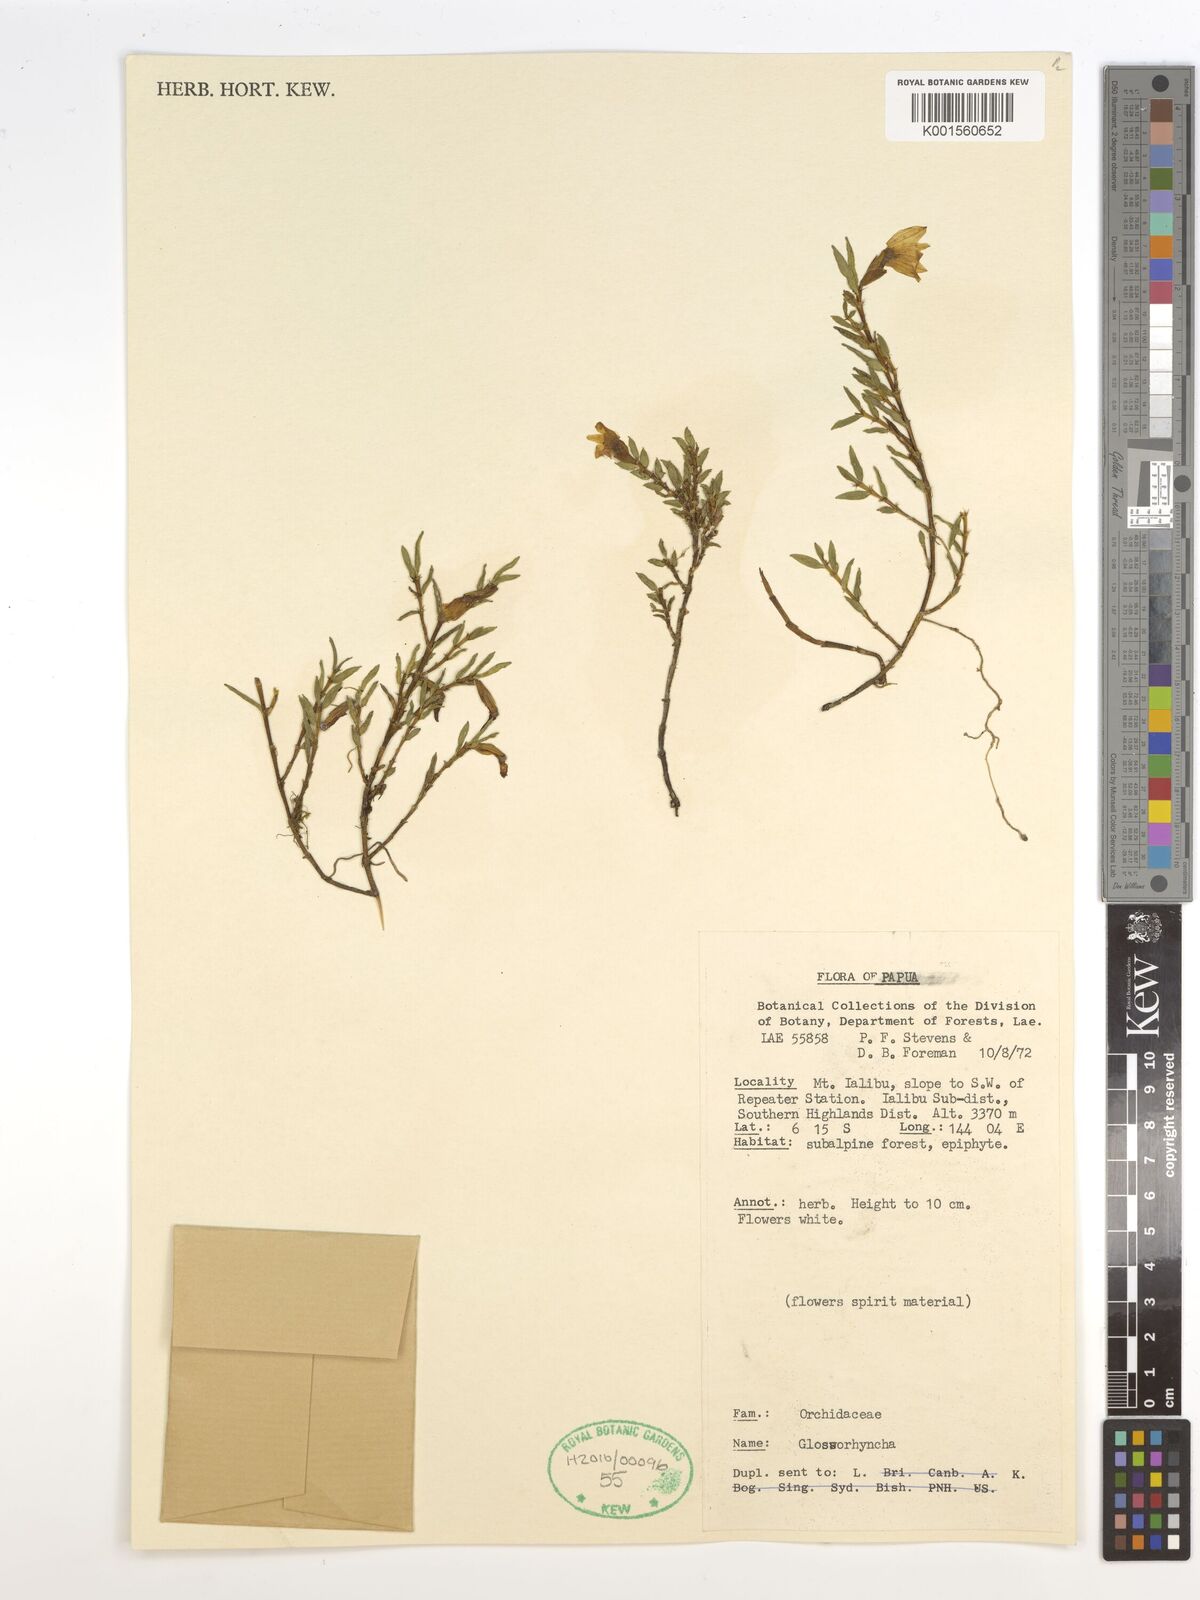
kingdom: Plantae
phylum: Tracheophyta
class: Liliopsida
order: Asparagales
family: Orchidaceae
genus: Glomera
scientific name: Glomera
